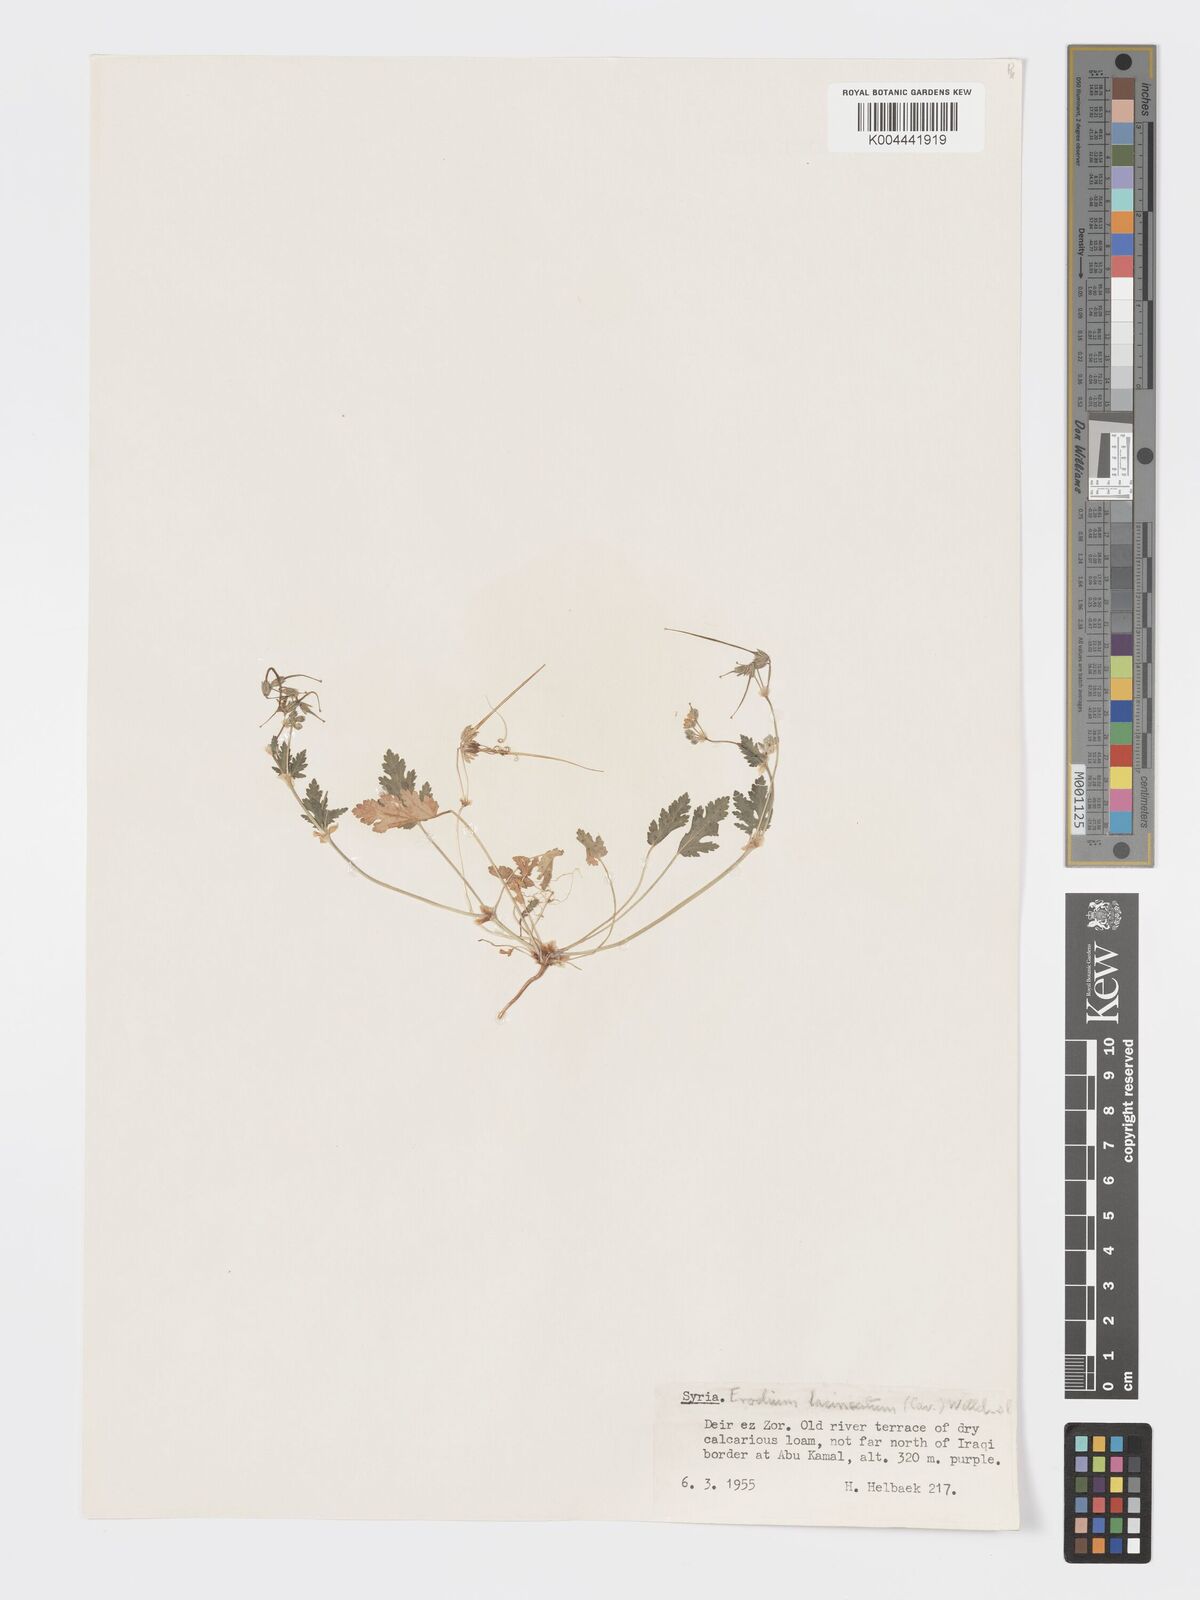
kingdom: Plantae
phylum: Tracheophyta
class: Magnoliopsida
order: Geraniales
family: Geraniaceae
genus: Erodium
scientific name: Erodium laciniatum
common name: Cutleaf stork's bill
